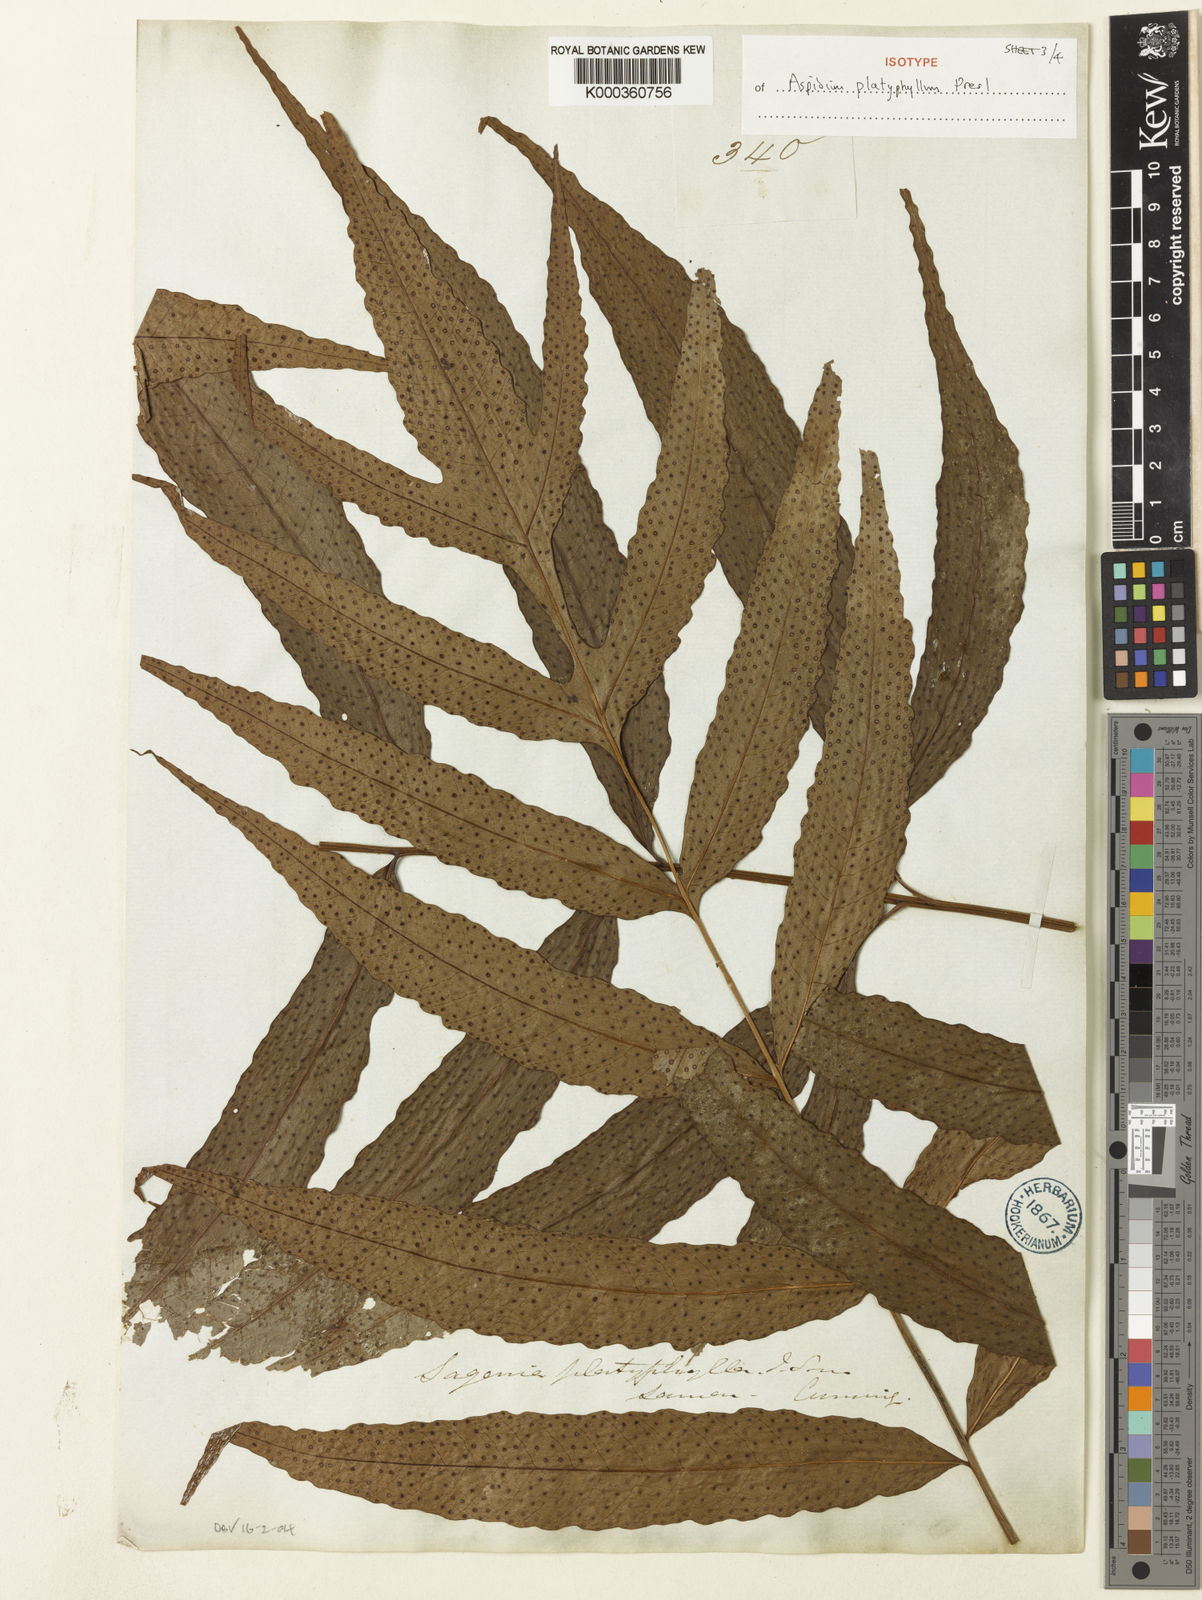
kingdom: Plantae
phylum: Tracheophyta
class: Polypodiopsida
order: Polypodiales
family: Tectariaceae
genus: Tectaria
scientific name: Tectaria repanda
